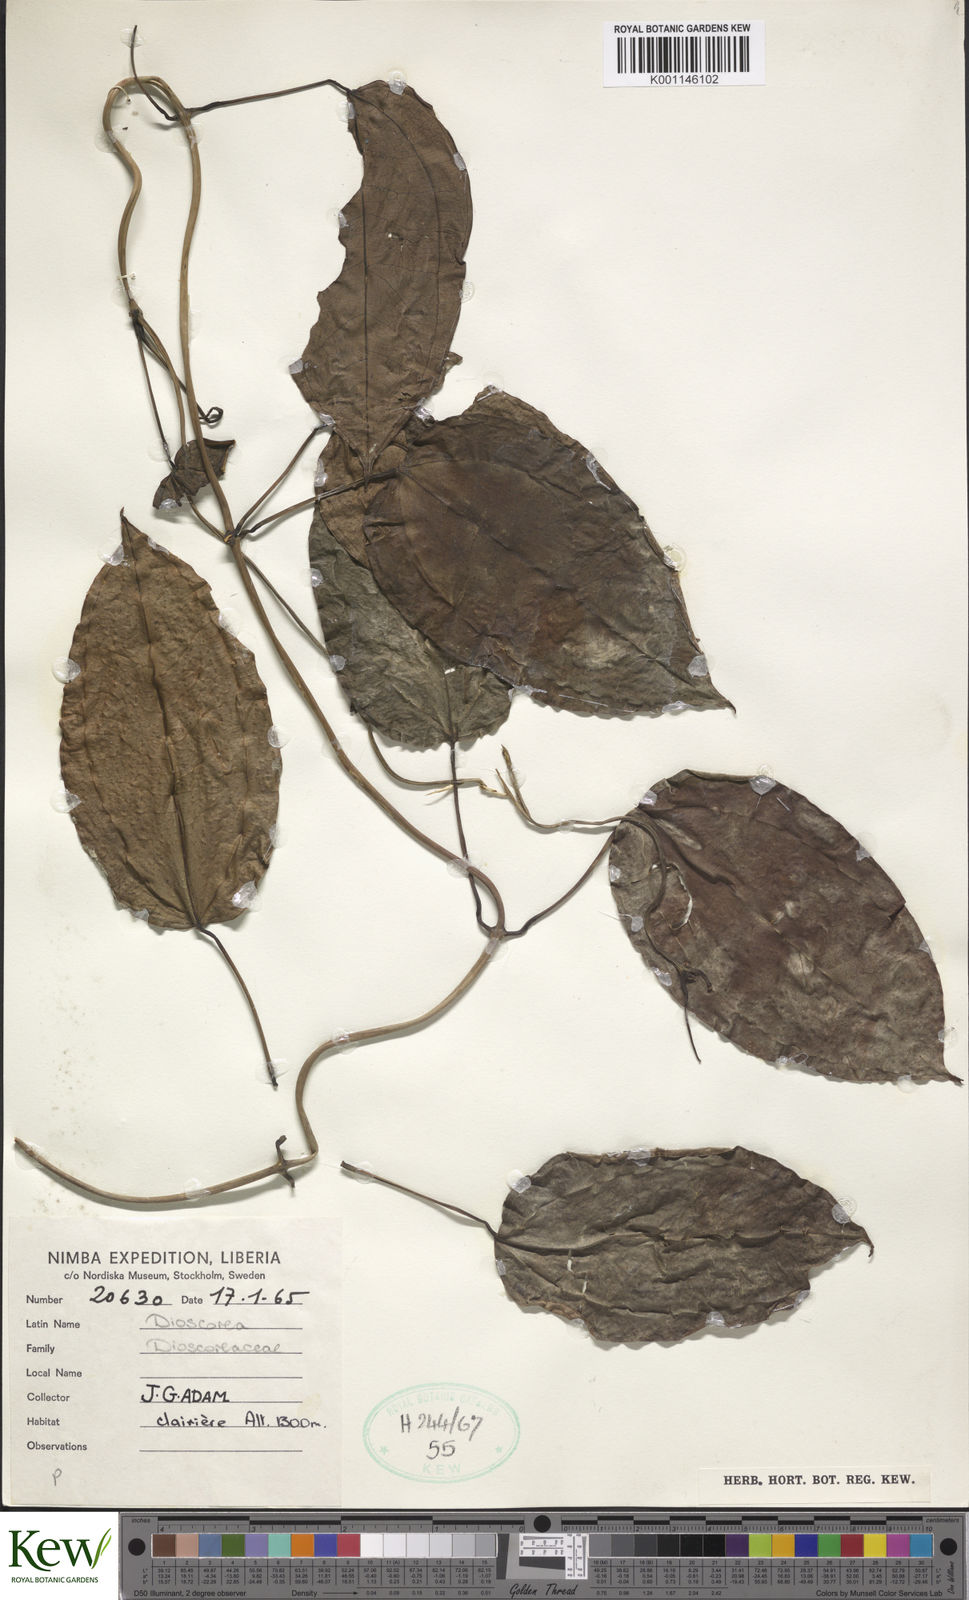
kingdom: Plantae
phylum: Tracheophyta
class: Liliopsida
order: Dioscoreales
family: Dioscoreaceae
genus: Dioscorea
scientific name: Dioscorea
